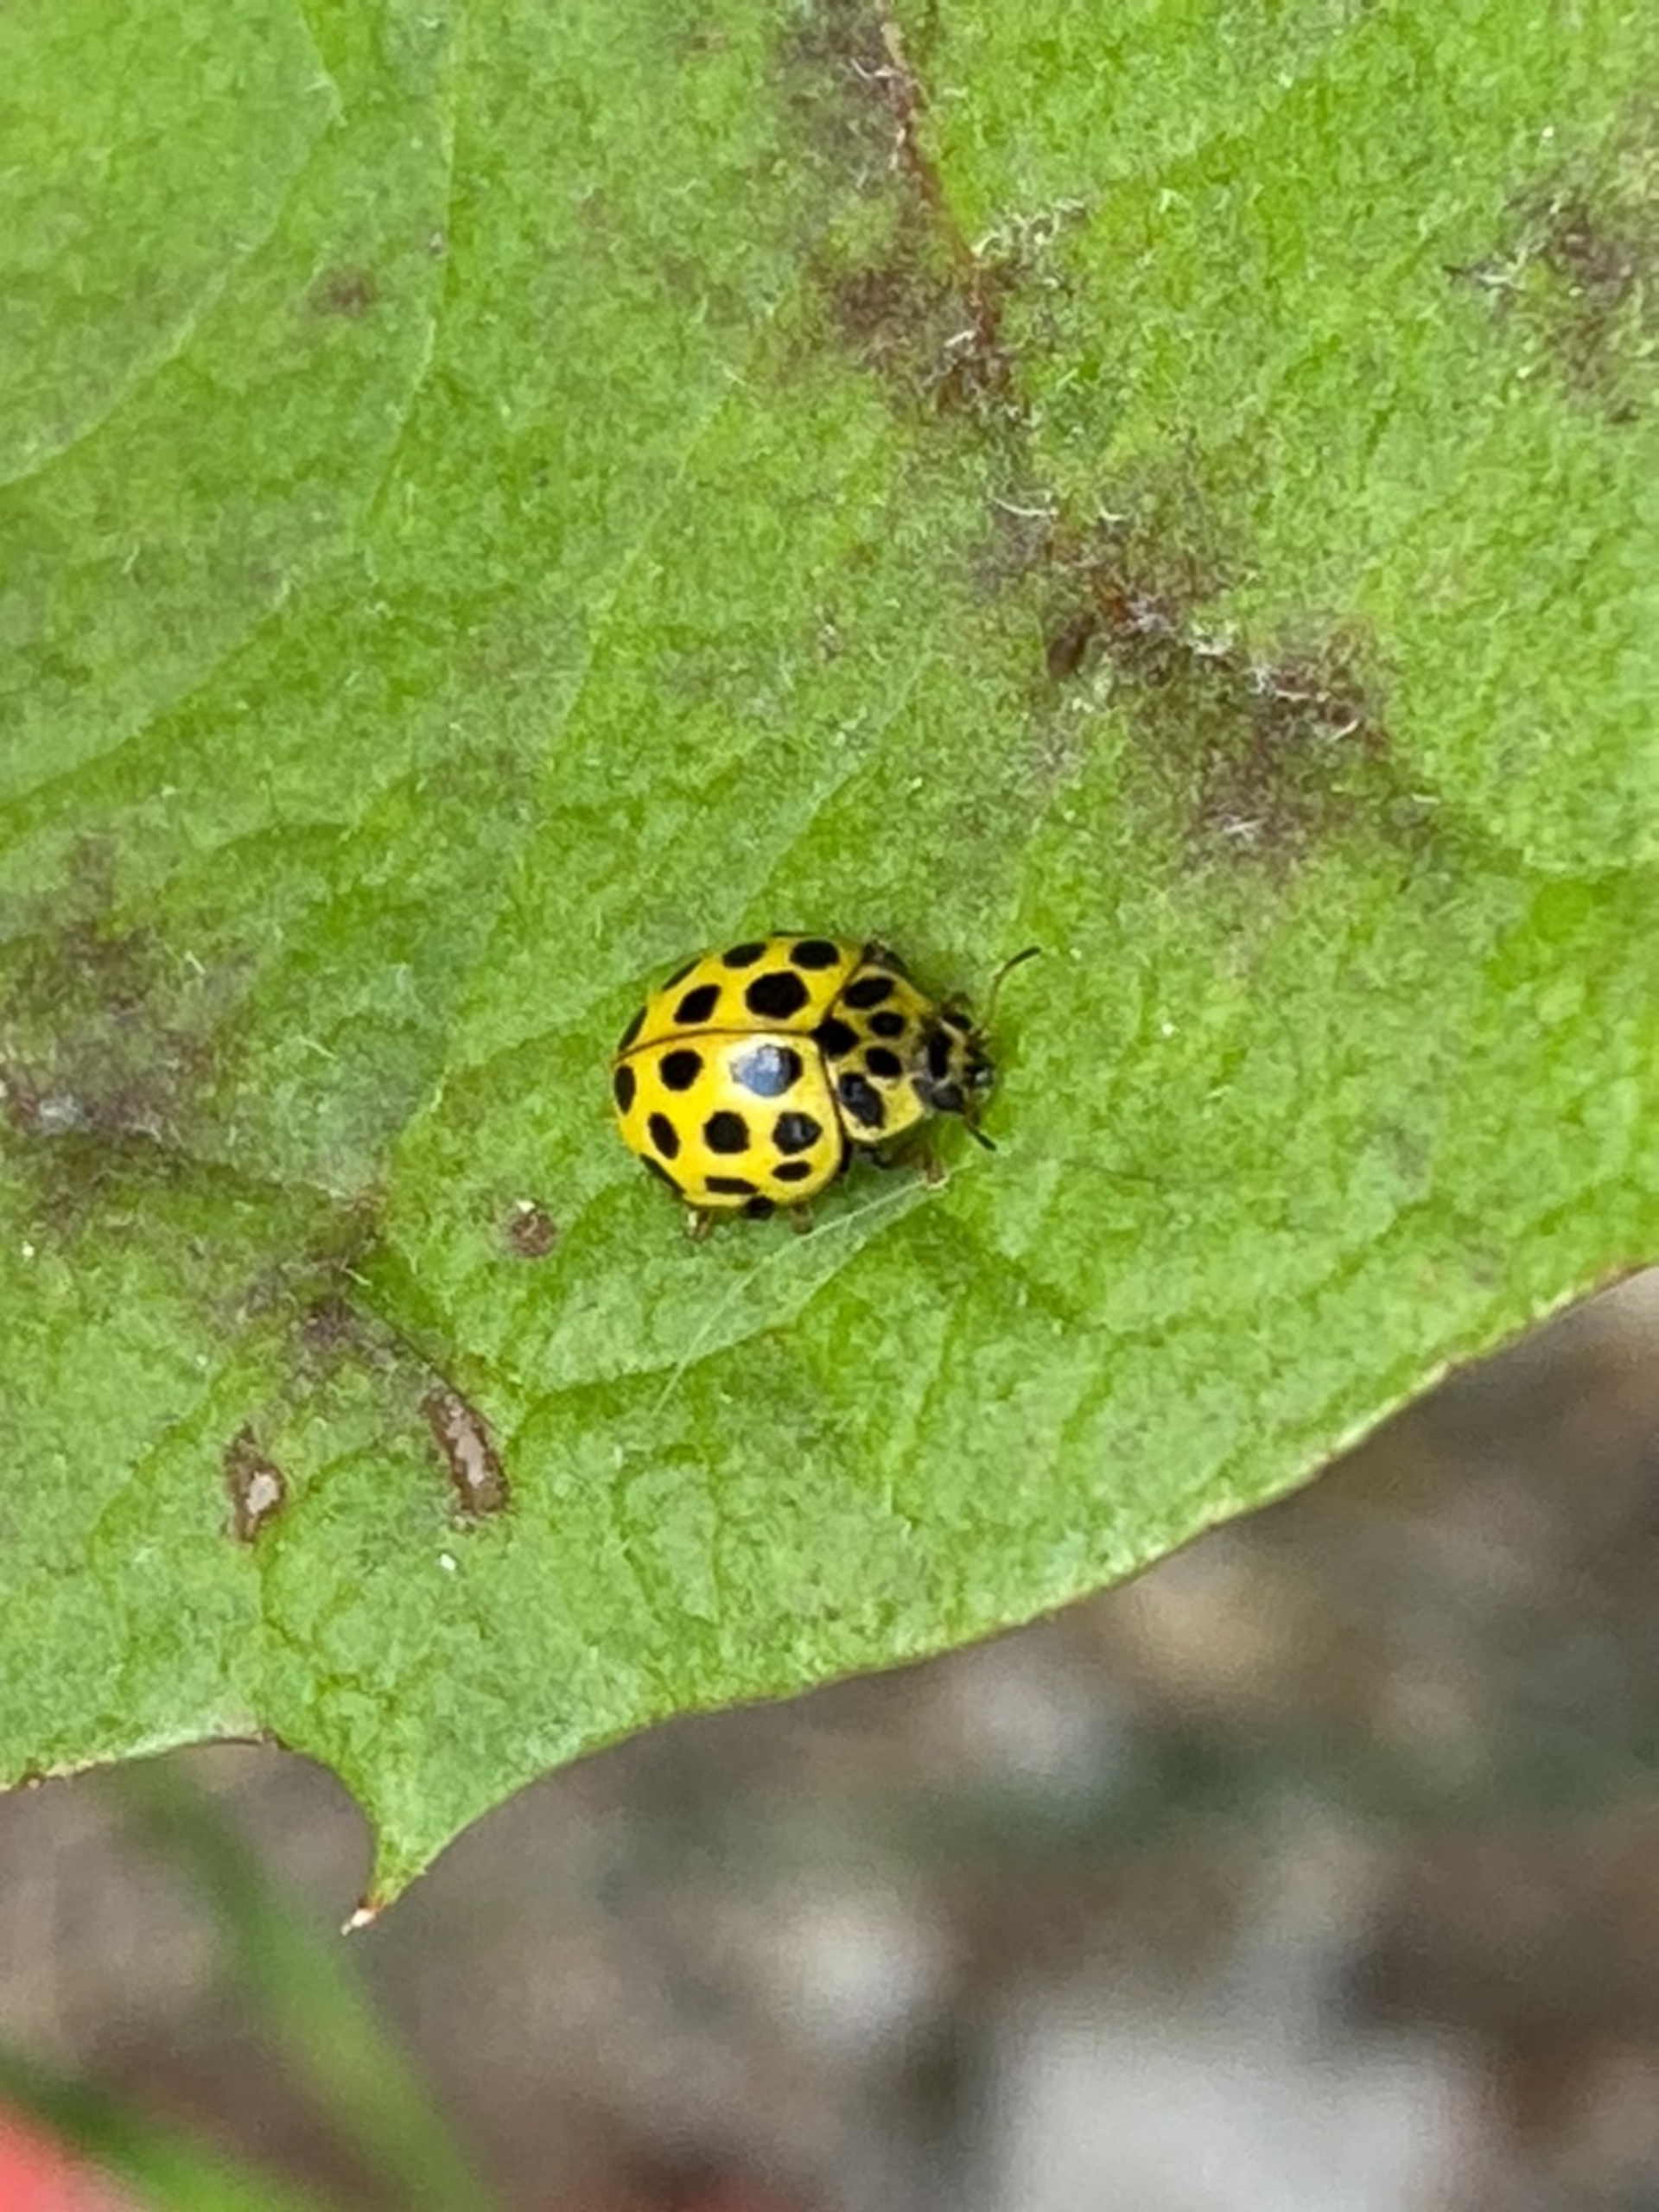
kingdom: Animalia
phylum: Arthropoda
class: Insecta
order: Coleoptera
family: Coccinellidae
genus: Psyllobora
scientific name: Psyllobora vigintiduopunctata
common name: Toogtyveplettet mariehøne
